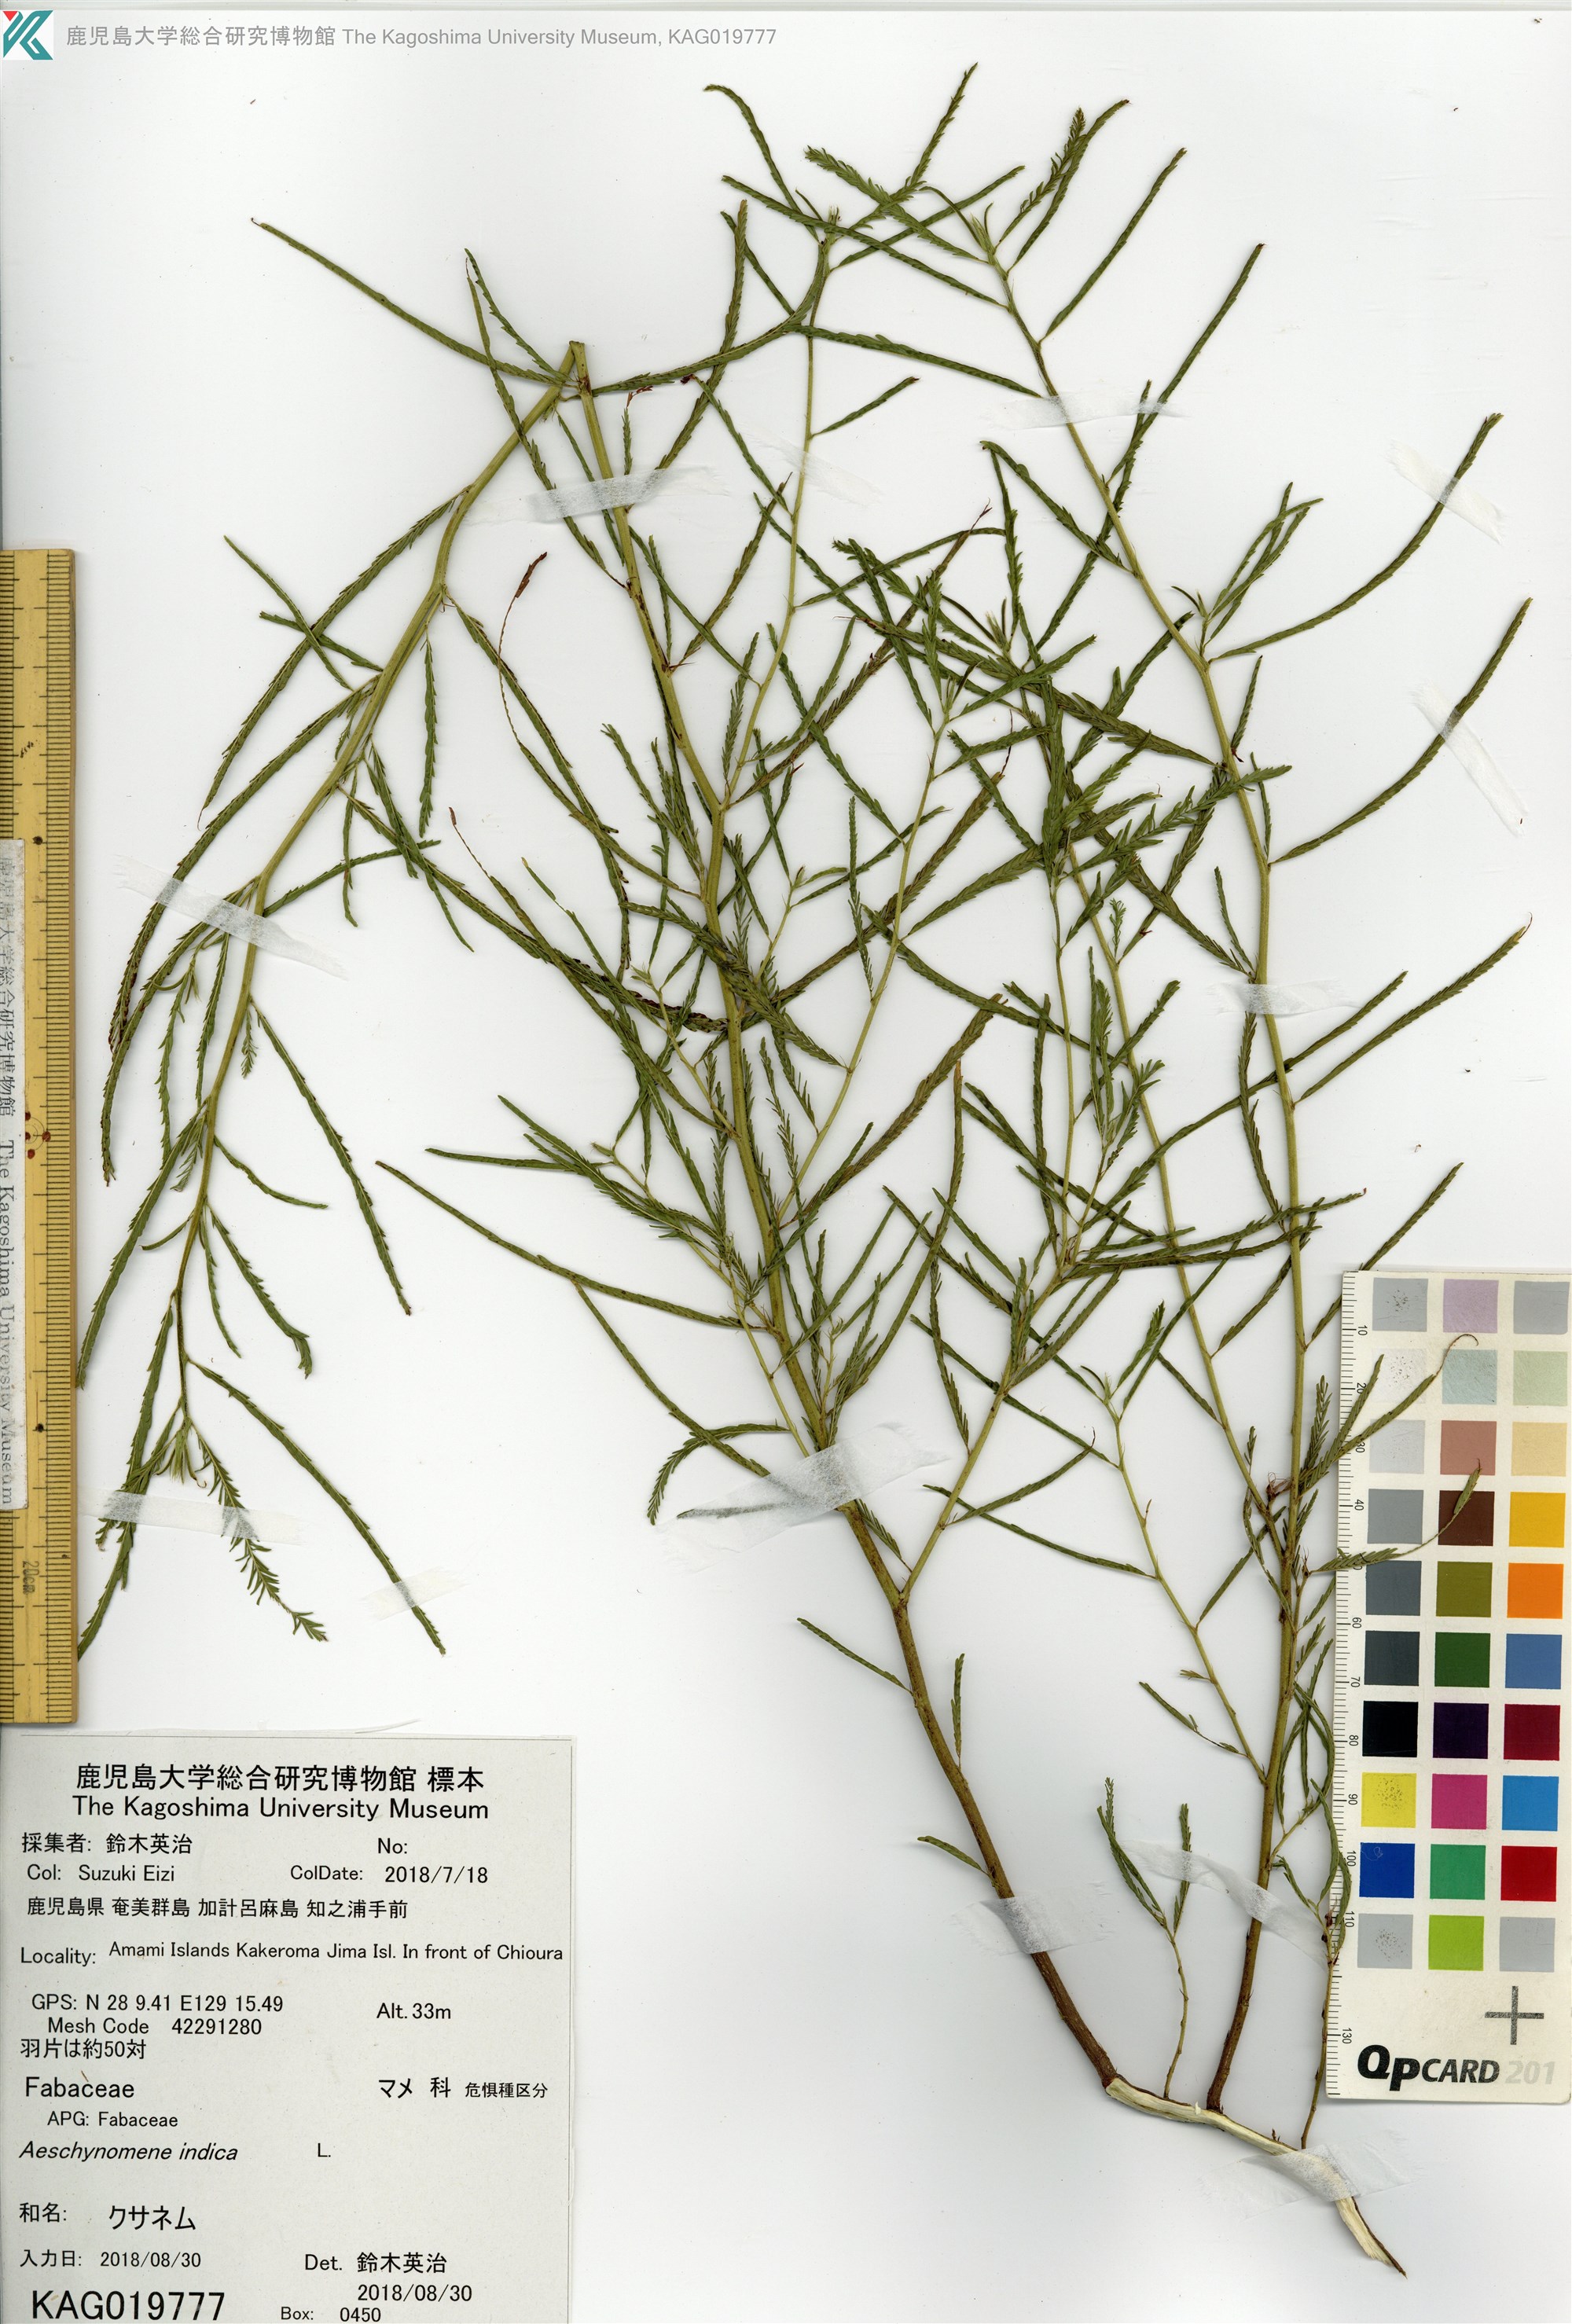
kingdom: Plantae
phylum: Tracheophyta
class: Magnoliopsida
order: Fabales
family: Fabaceae
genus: Chamaecrista
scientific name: Chamaecrista nomame
